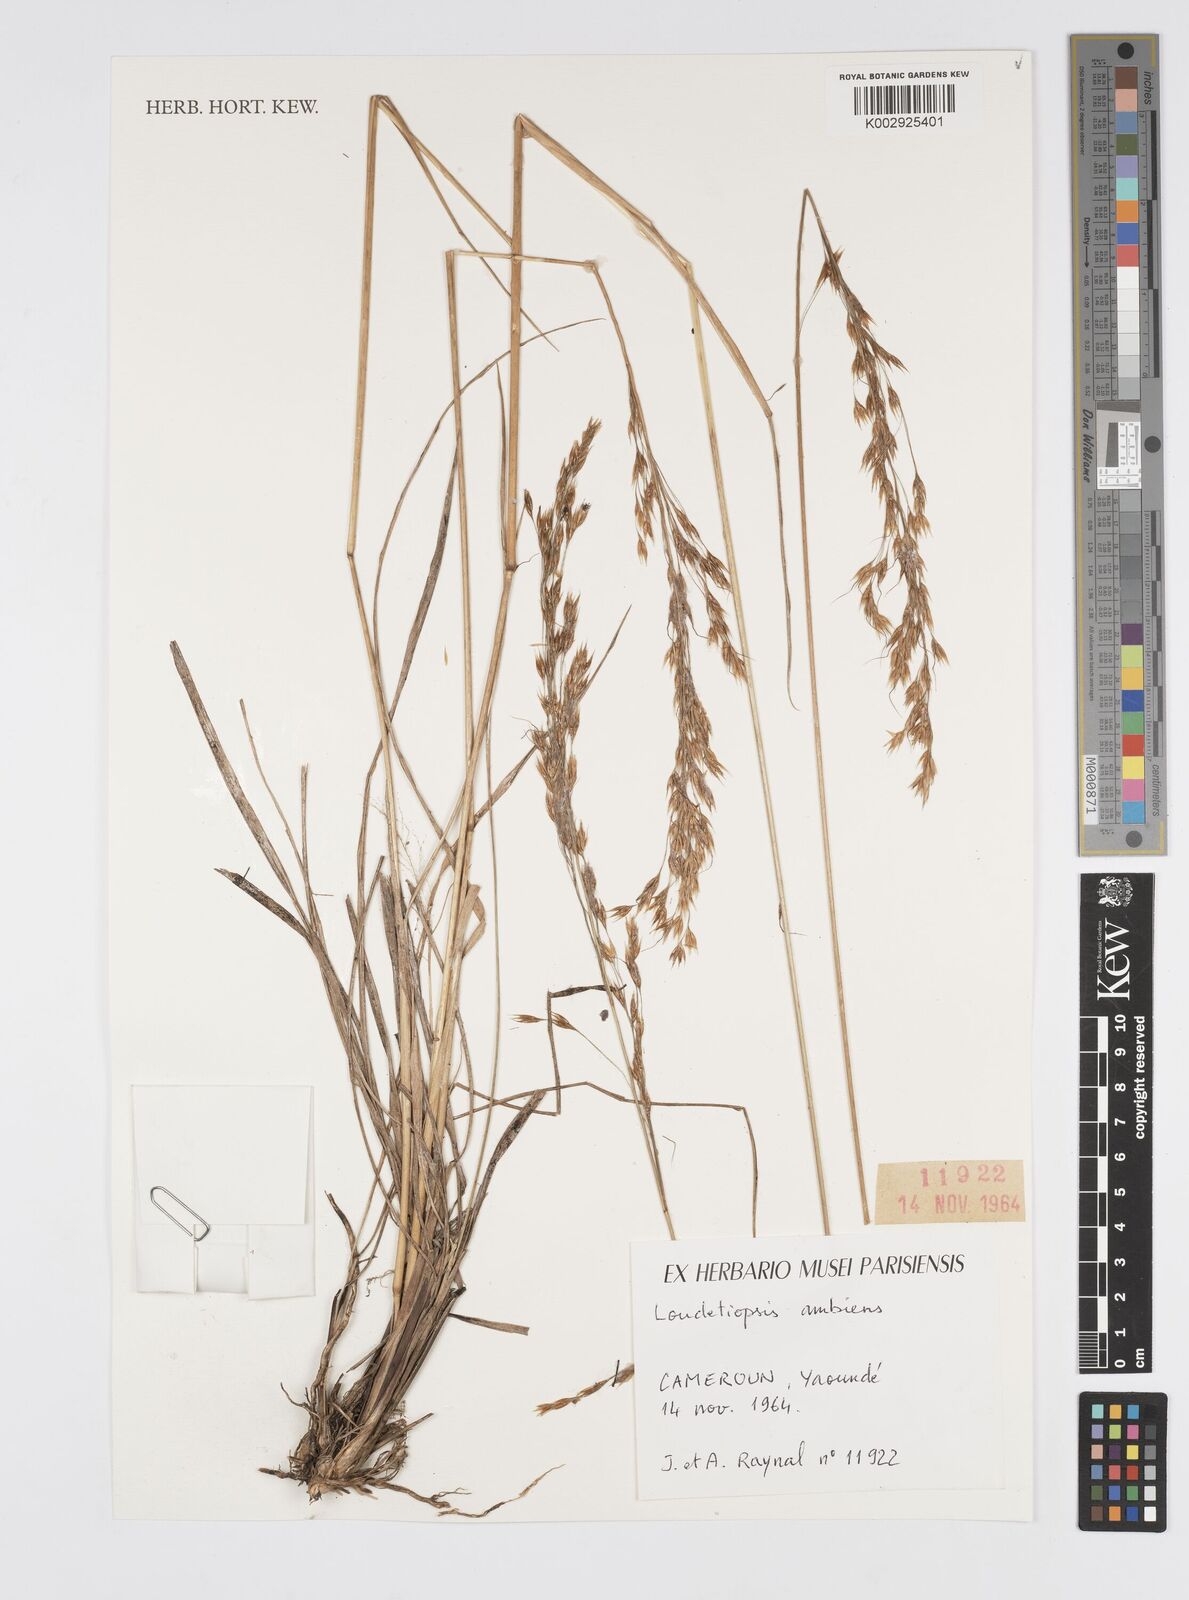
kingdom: Plantae
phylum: Tracheophyta
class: Liliopsida
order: Poales
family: Poaceae
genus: Loudetiopsis
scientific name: Loudetiopsis ambiens
